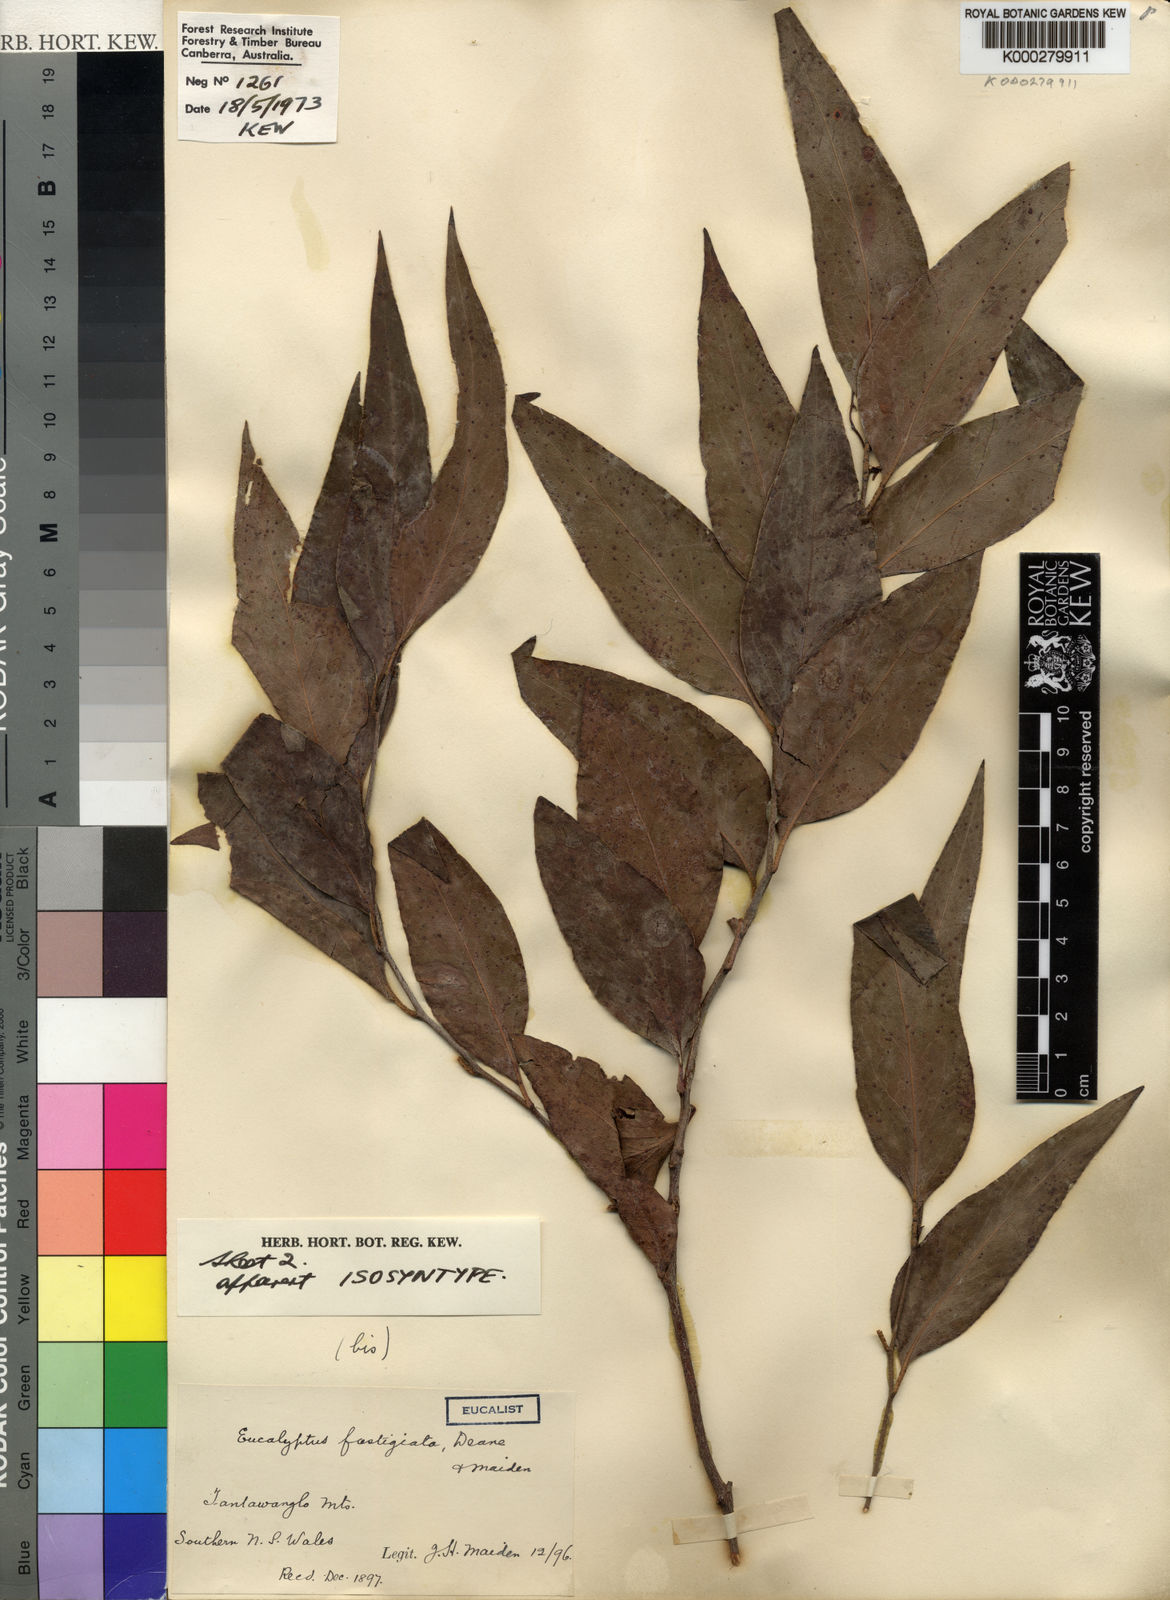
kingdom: Plantae
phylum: Tracheophyta
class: Magnoliopsida
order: Myrtales
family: Myrtaceae
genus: Eucalyptus
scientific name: Eucalyptus fastigata
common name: Brown barrel
